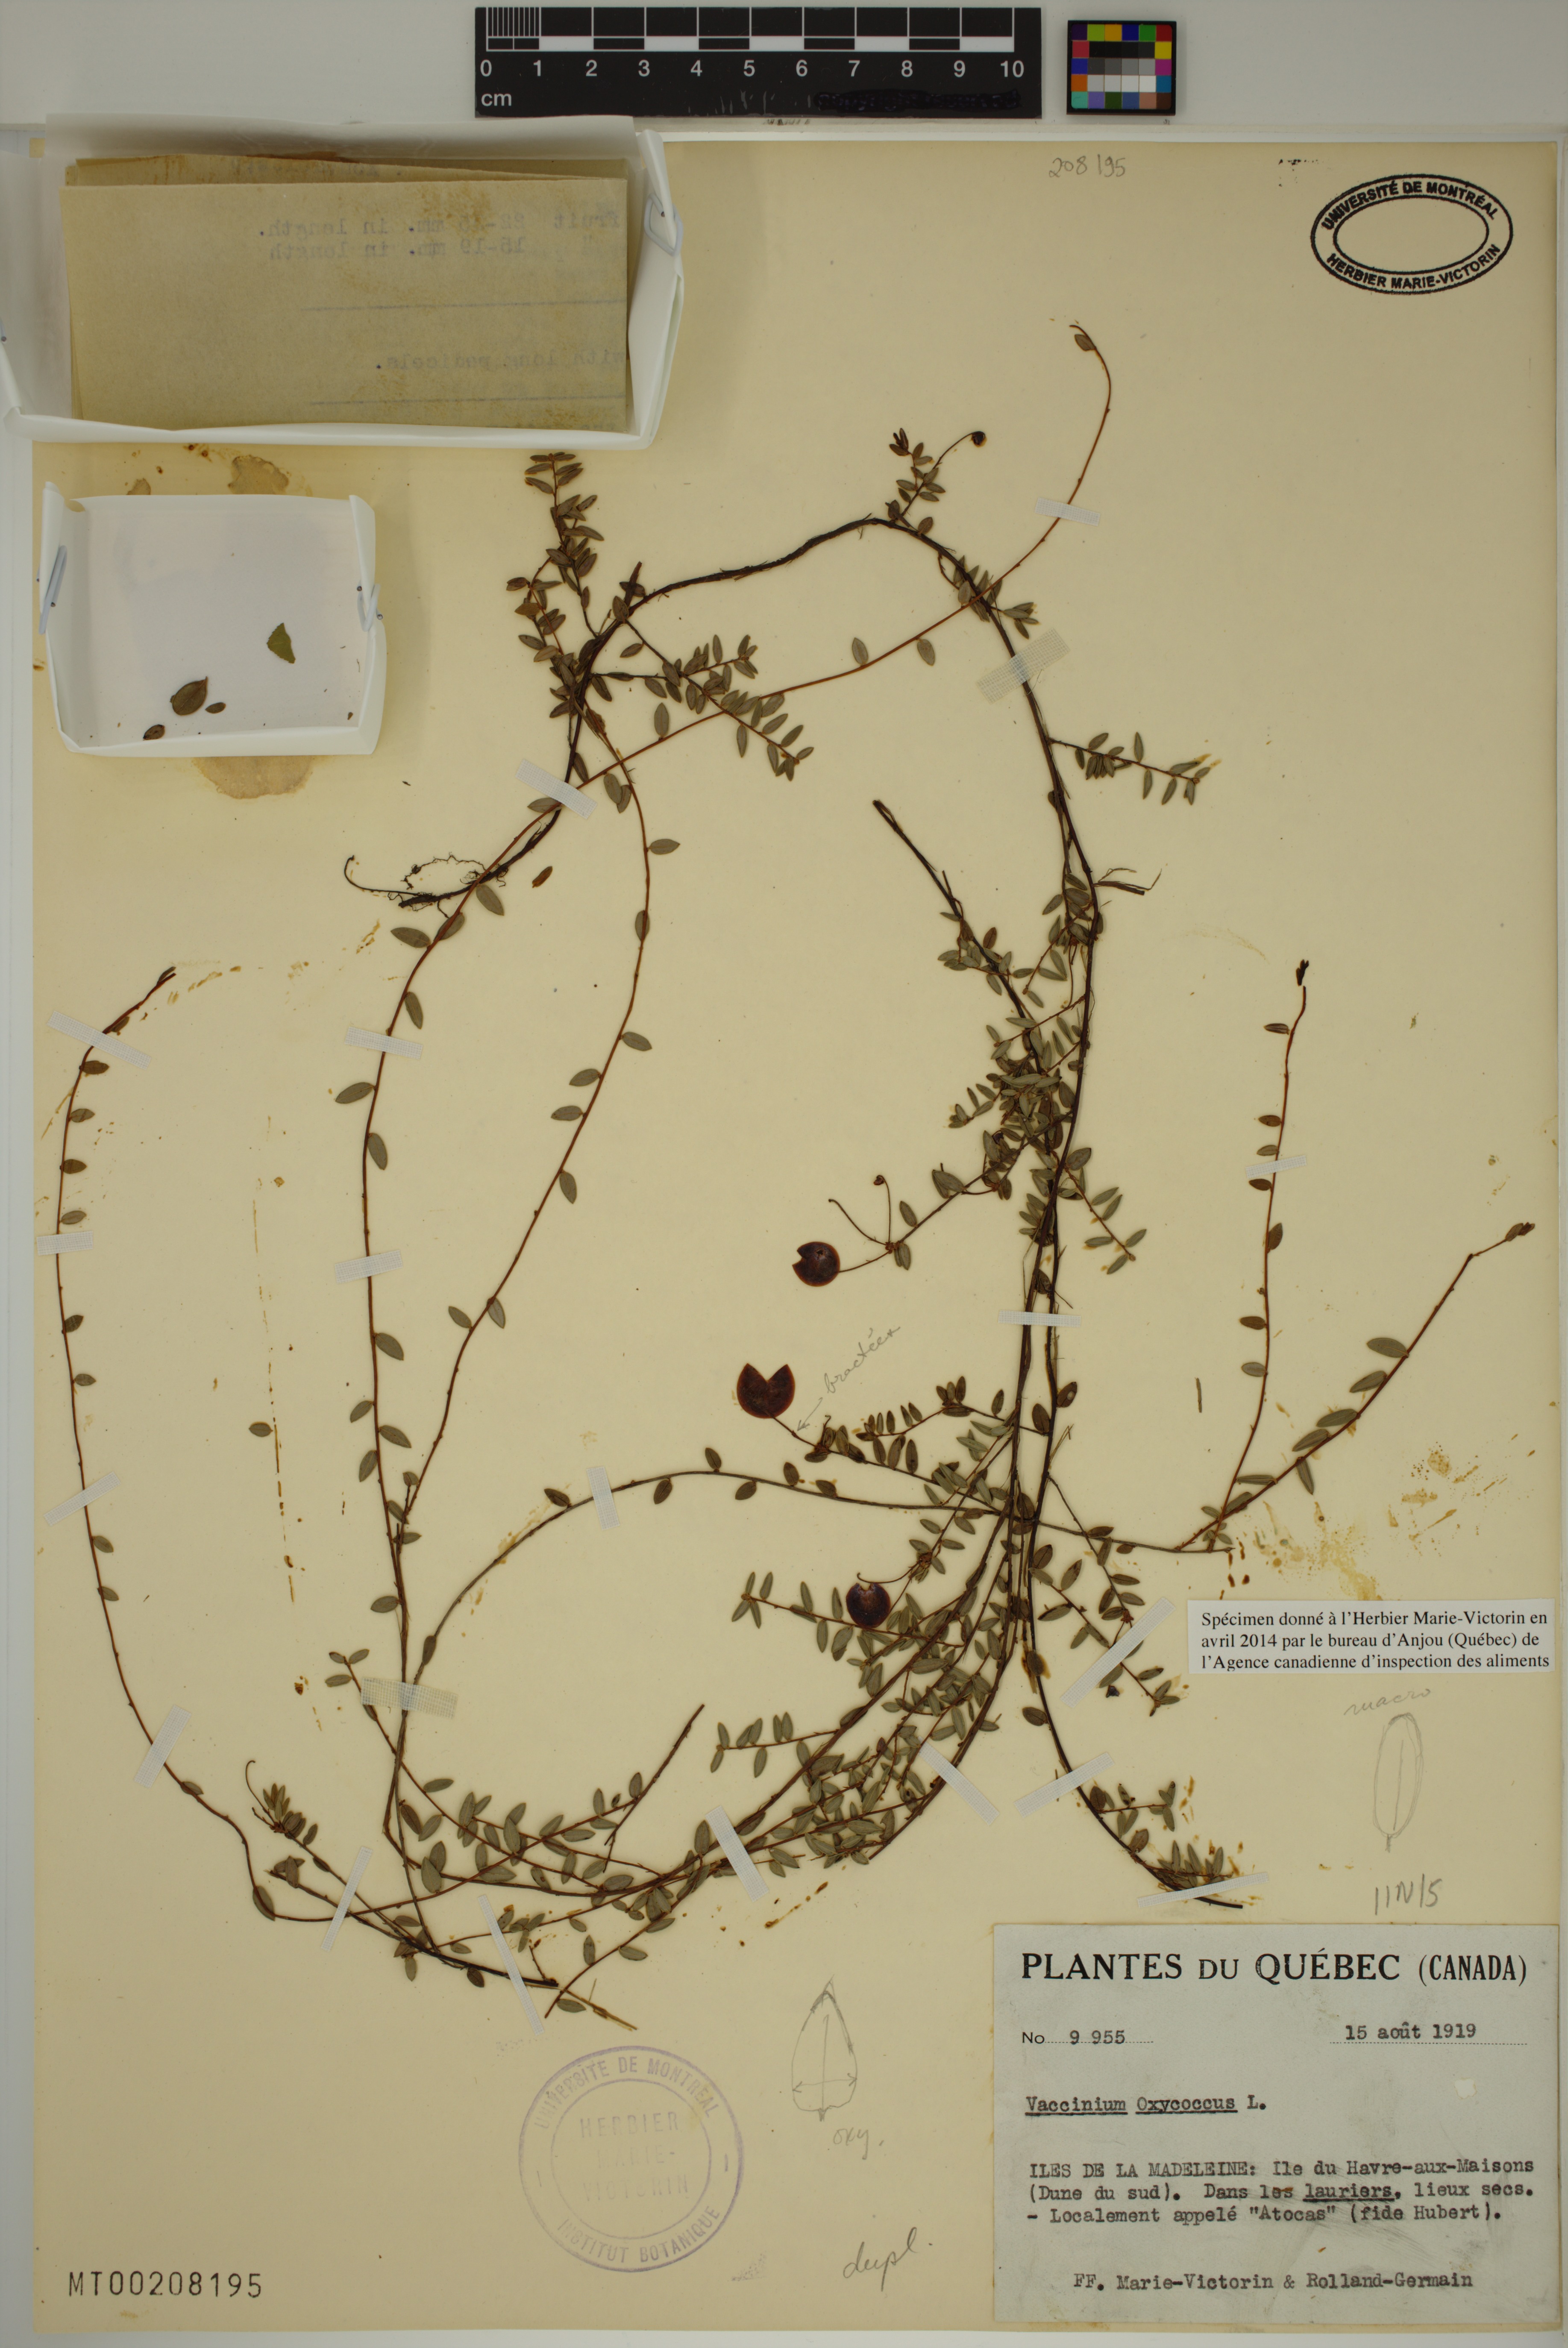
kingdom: Plantae
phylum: Tracheophyta
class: Magnoliopsida
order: Ericales
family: Ericaceae
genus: Vaccinium
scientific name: Vaccinium oxycoccos
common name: Cranberry
